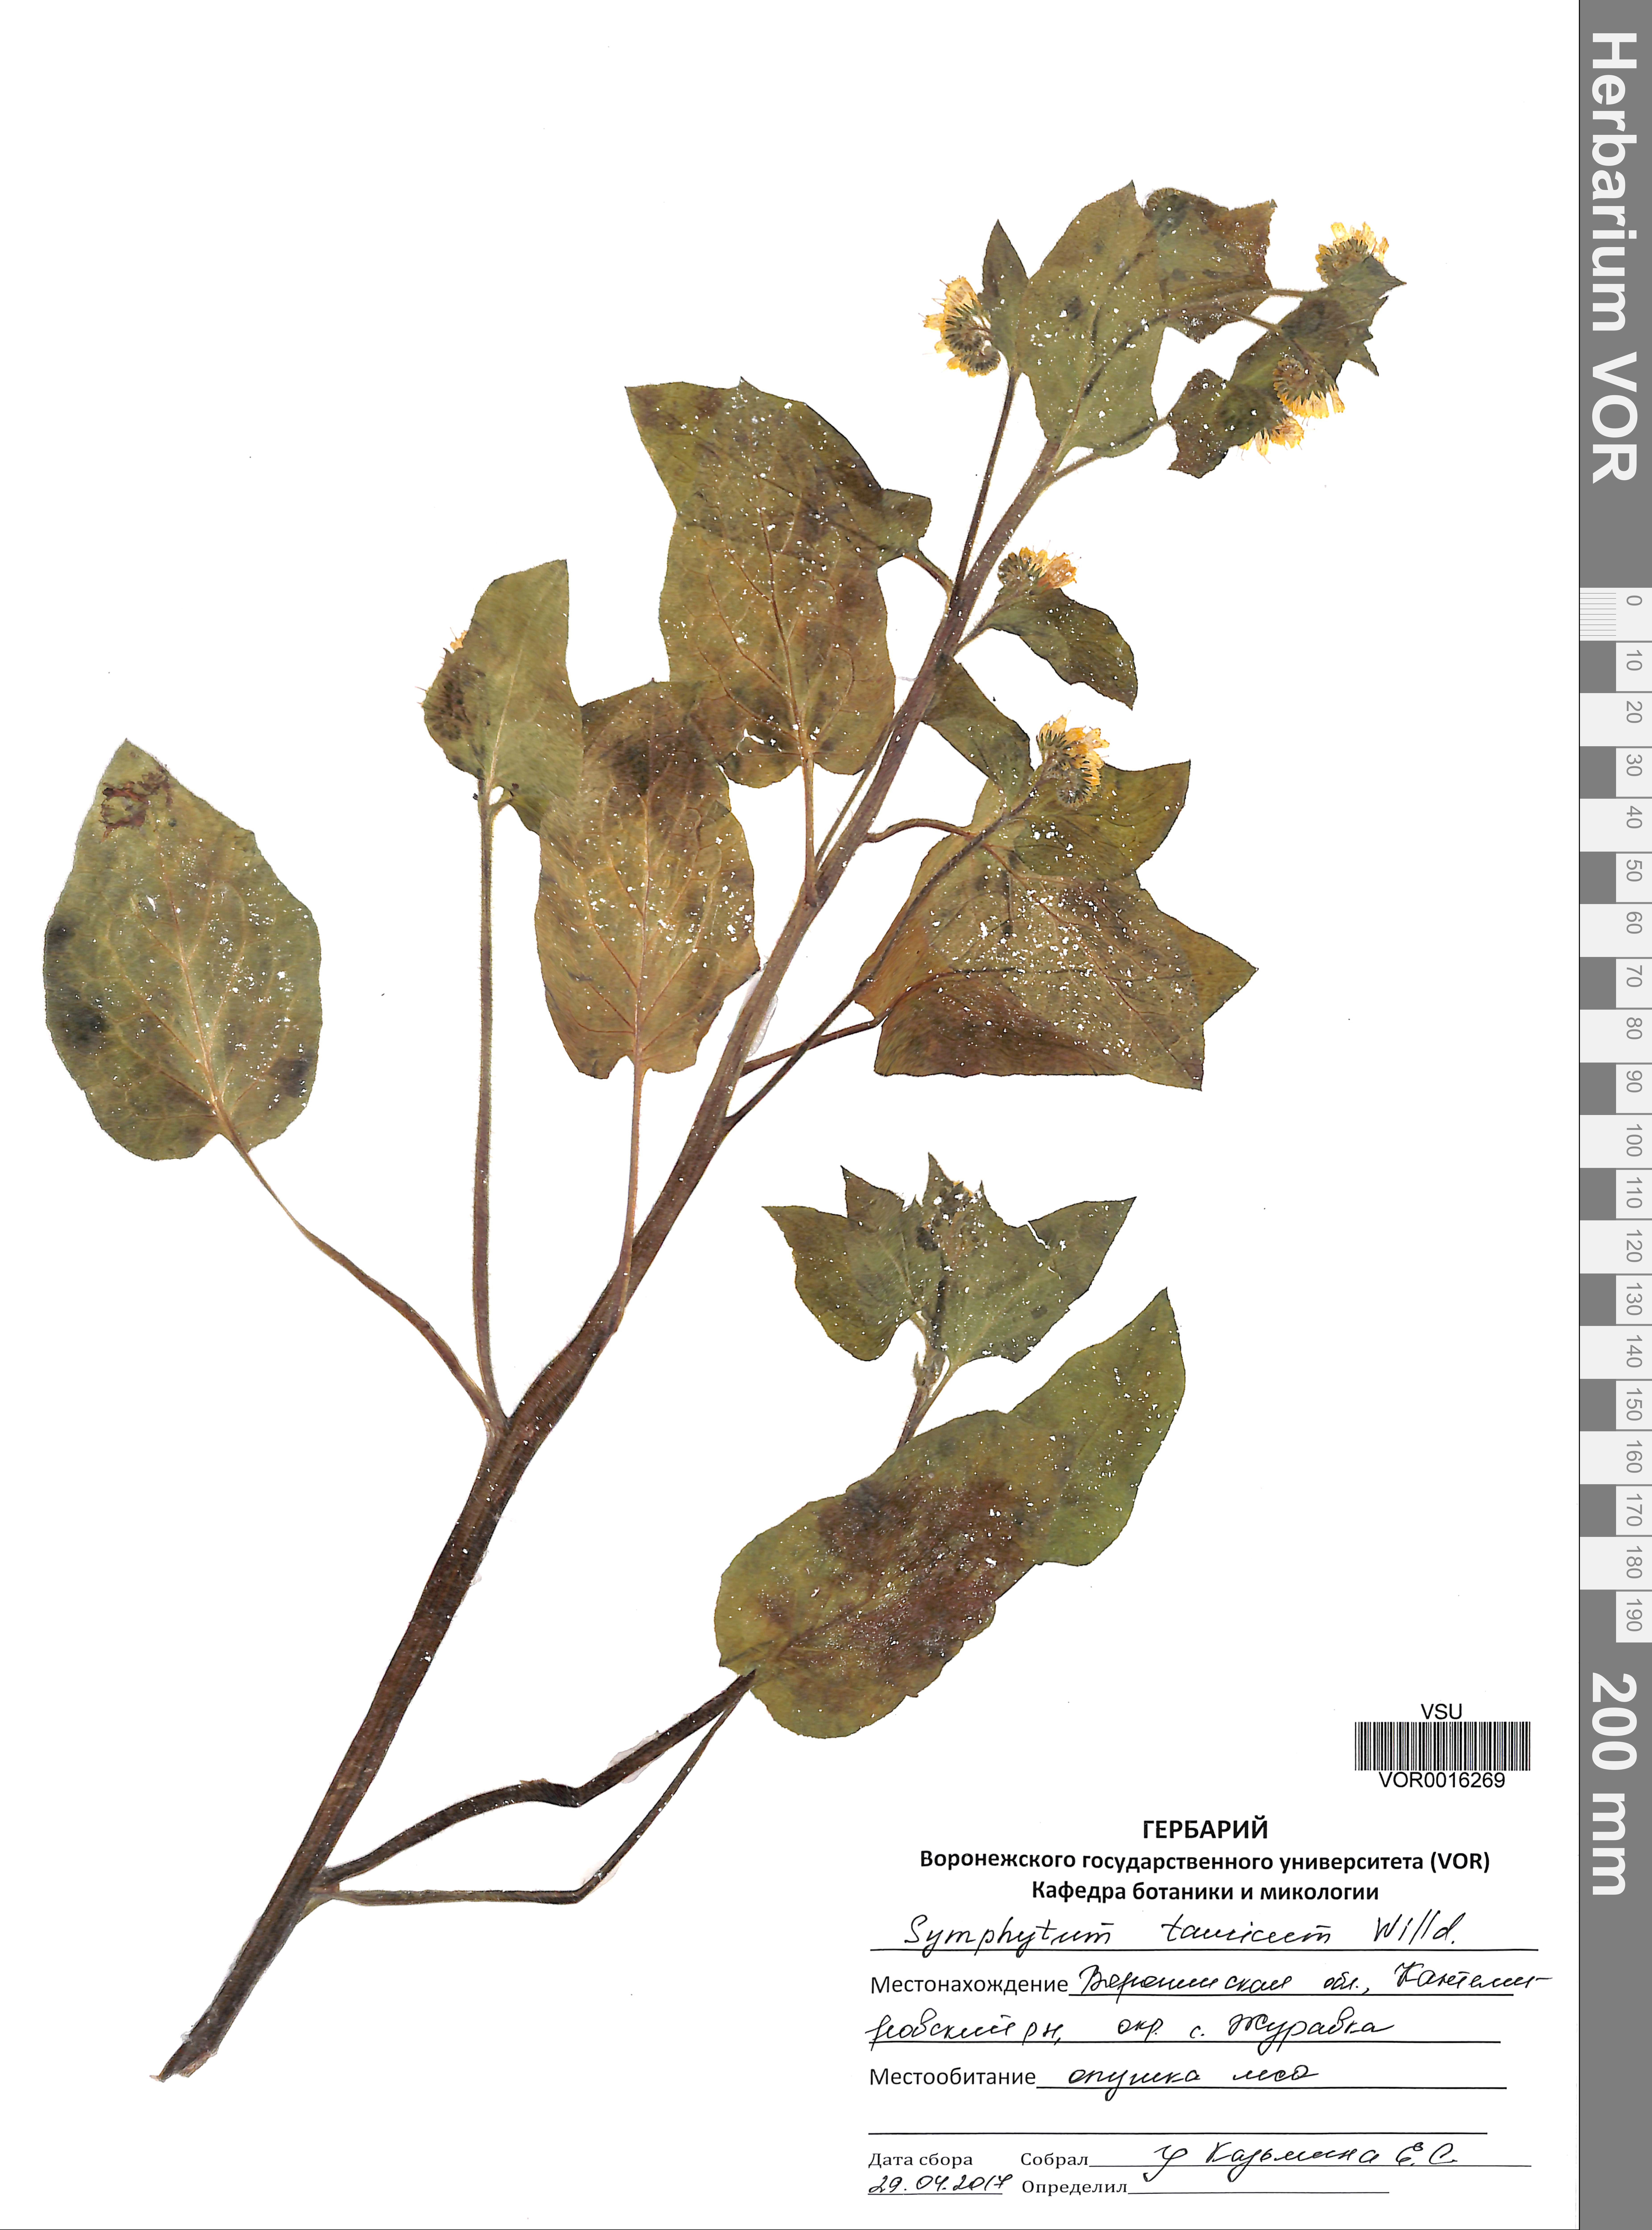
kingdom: Plantae
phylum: Tracheophyta
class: Magnoliopsida
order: Boraginales
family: Boraginaceae
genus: Symphytum
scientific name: Symphytum tauricum
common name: Crimean comfrey
